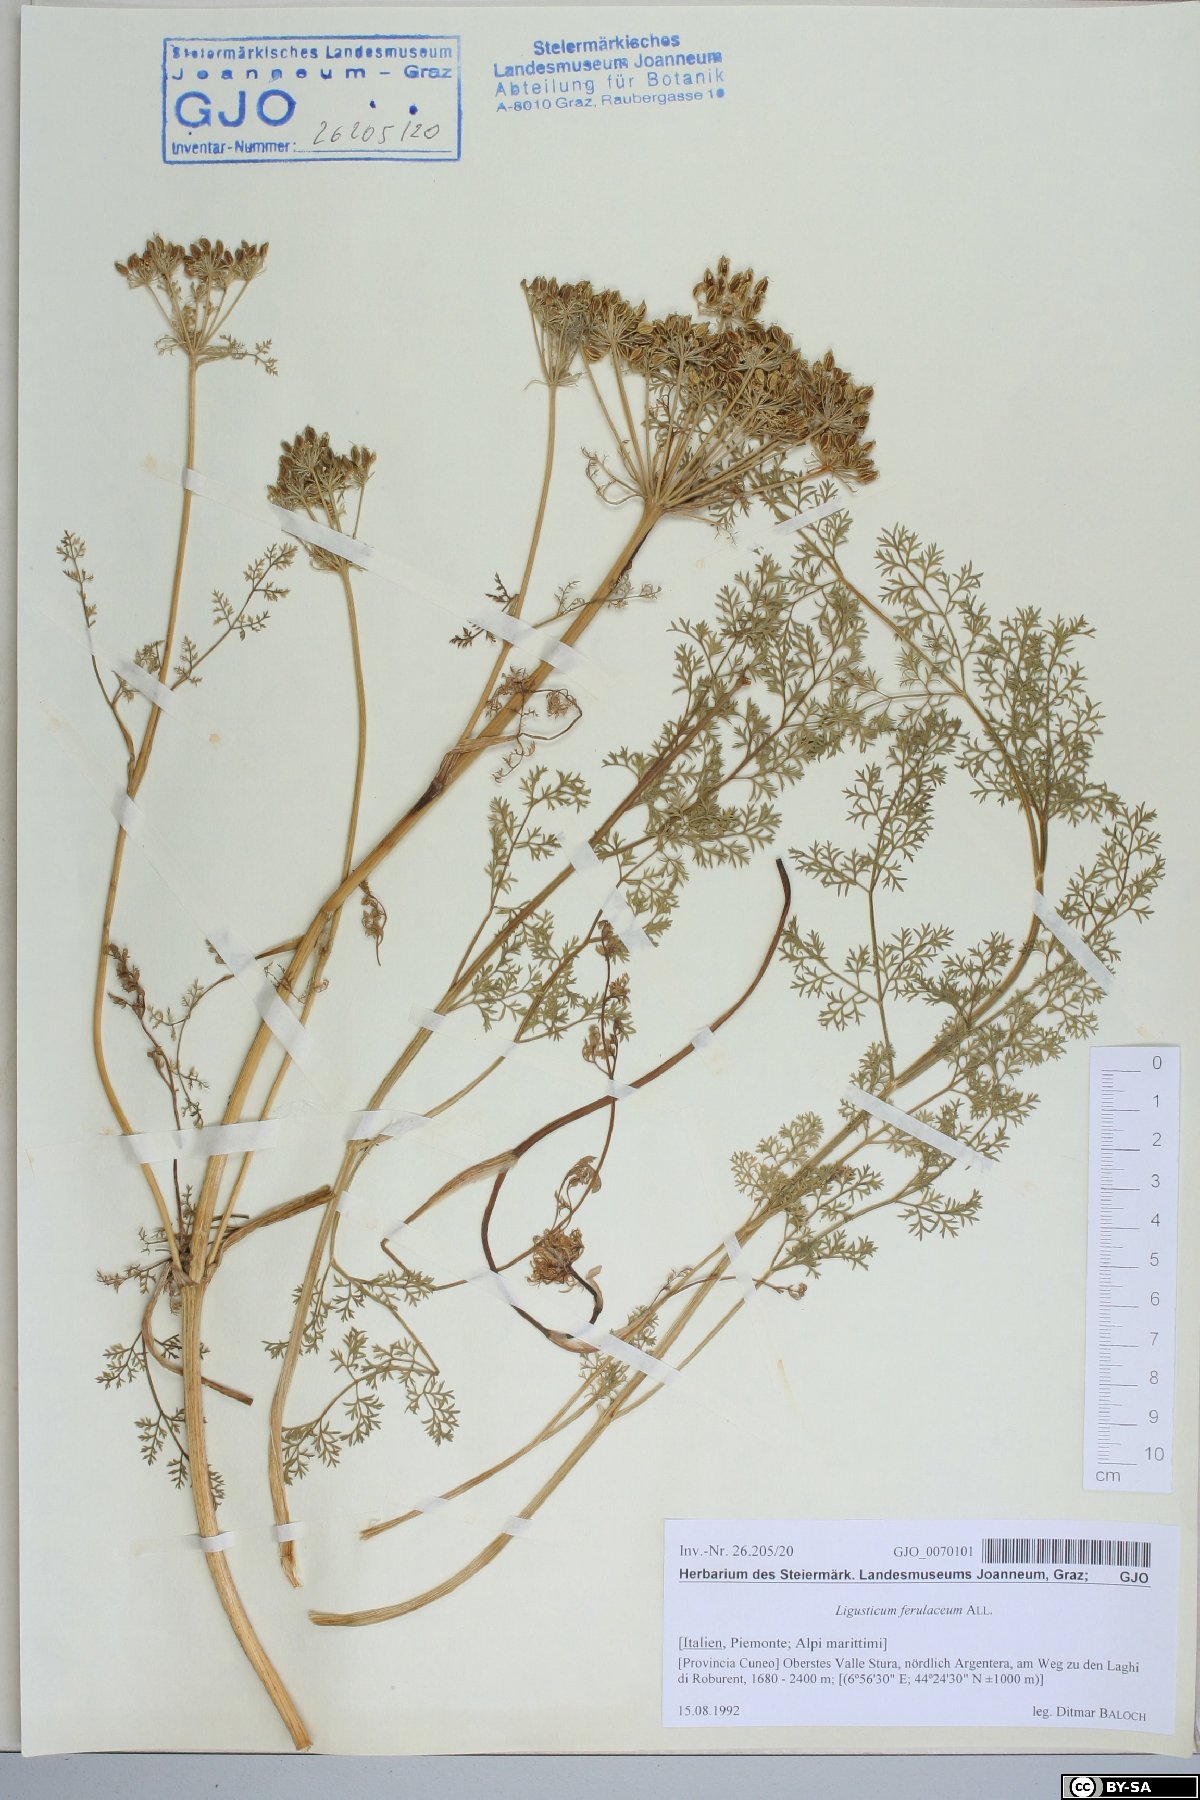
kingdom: Plantae
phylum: Tracheophyta
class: Magnoliopsida
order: Apiales
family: Apiaceae
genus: Coristospermum
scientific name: Coristospermum ferulaceum
